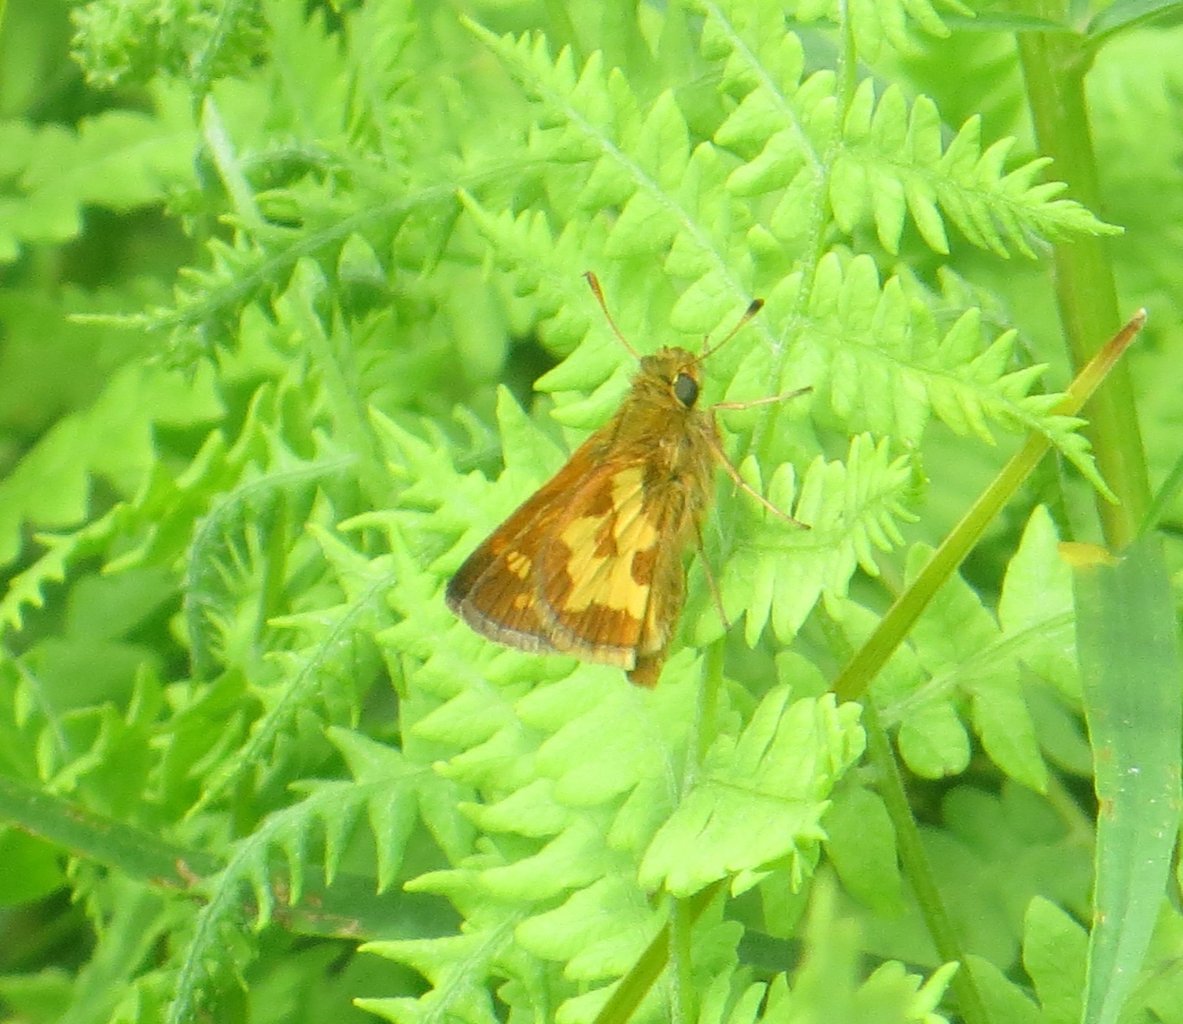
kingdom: Animalia
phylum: Arthropoda
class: Insecta
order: Lepidoptera
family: Hesperiidae
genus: Polites
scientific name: Polites coras
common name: Peck's Skipper
